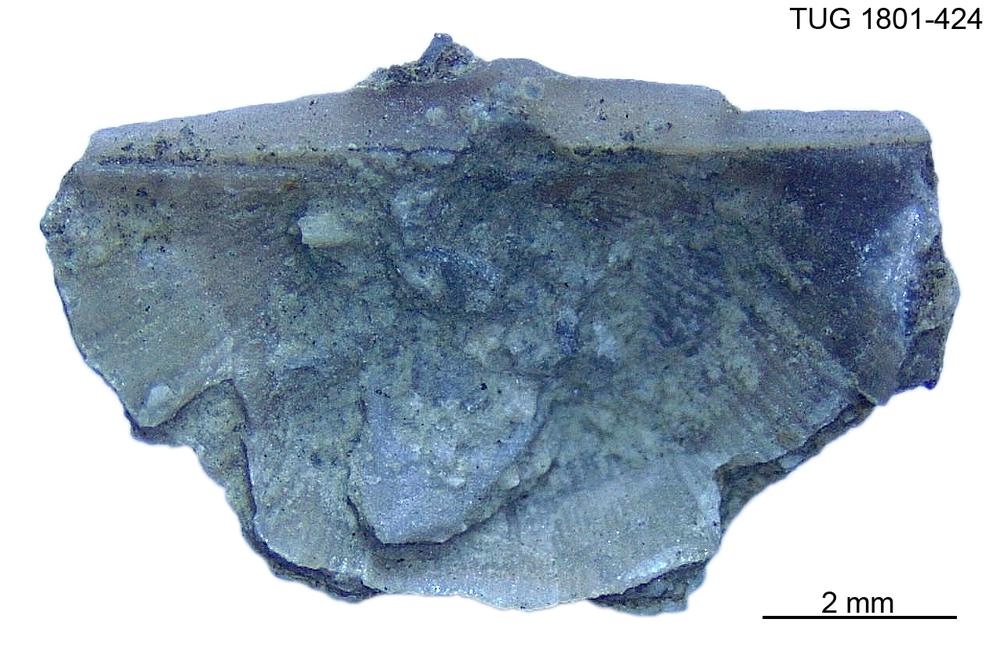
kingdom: Animalia
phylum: Brachiopoda
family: Oldhaminidae
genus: Eoplectodonta
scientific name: Eoplectodonta
